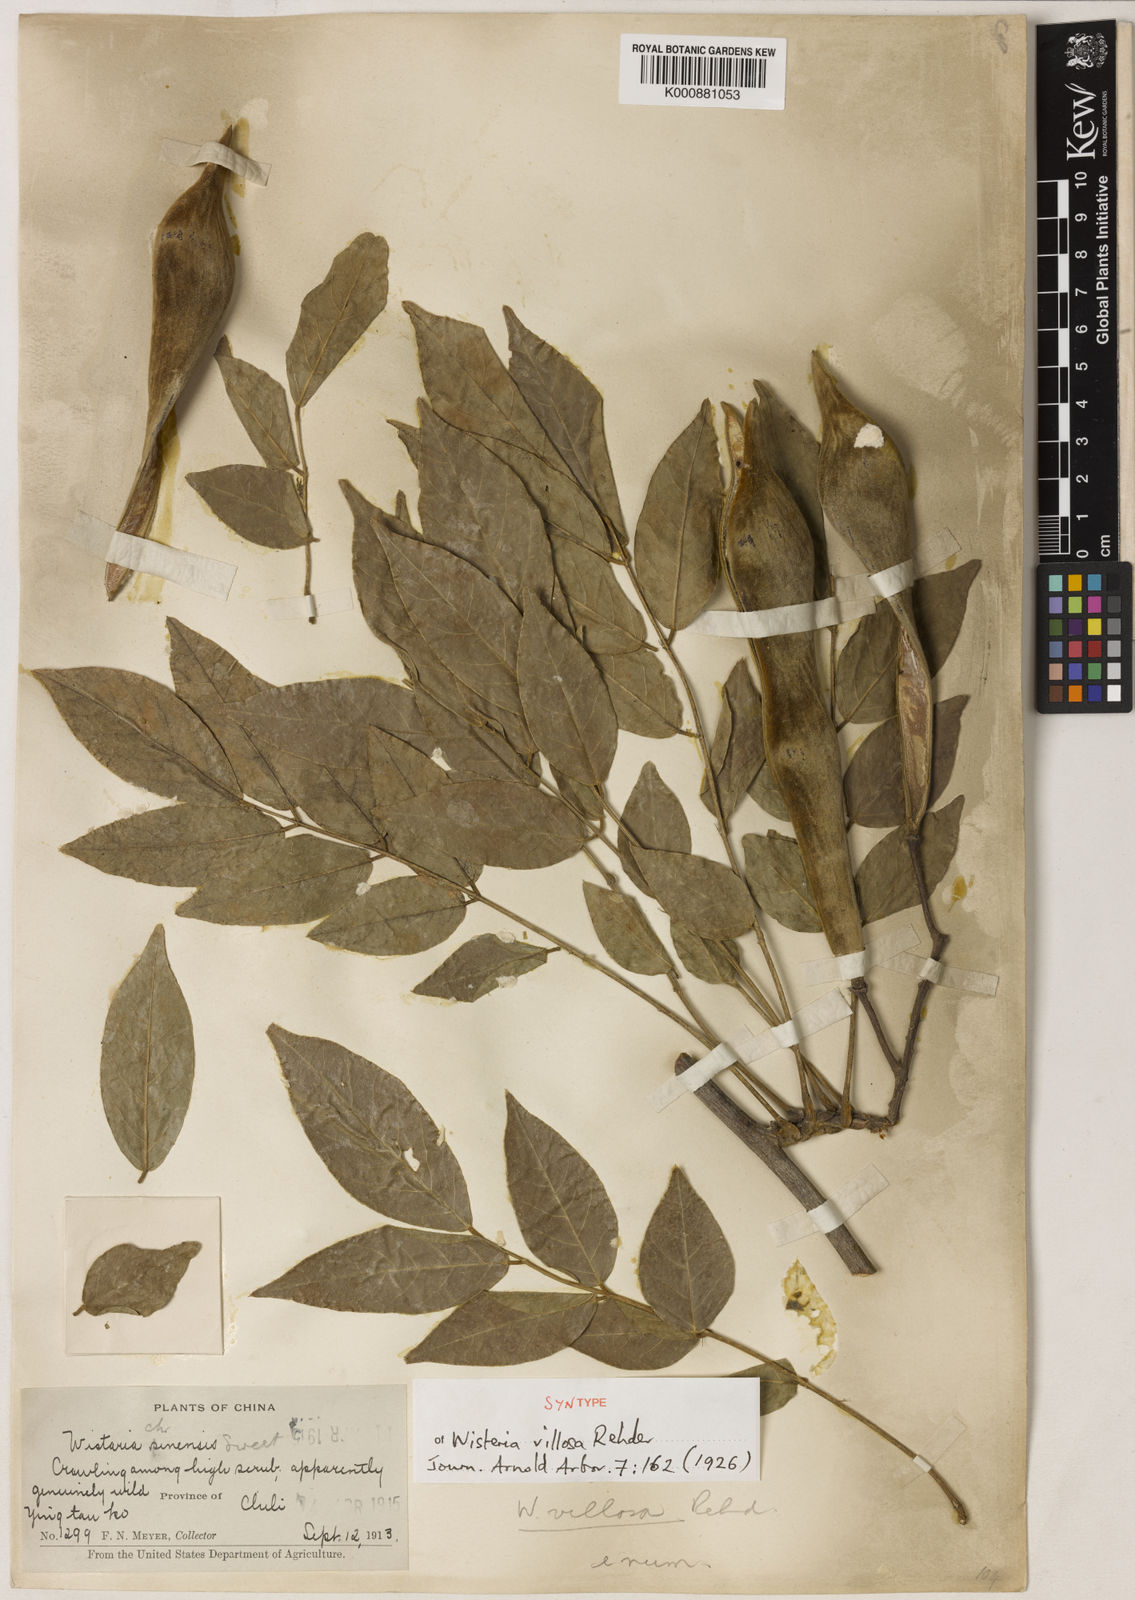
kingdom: Plantae
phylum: Tracheophyta
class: Magnoliopsida
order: Fabales
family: Fabaceae
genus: Wisteria
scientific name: Wisteria sinensis
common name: Chinese wisteria
